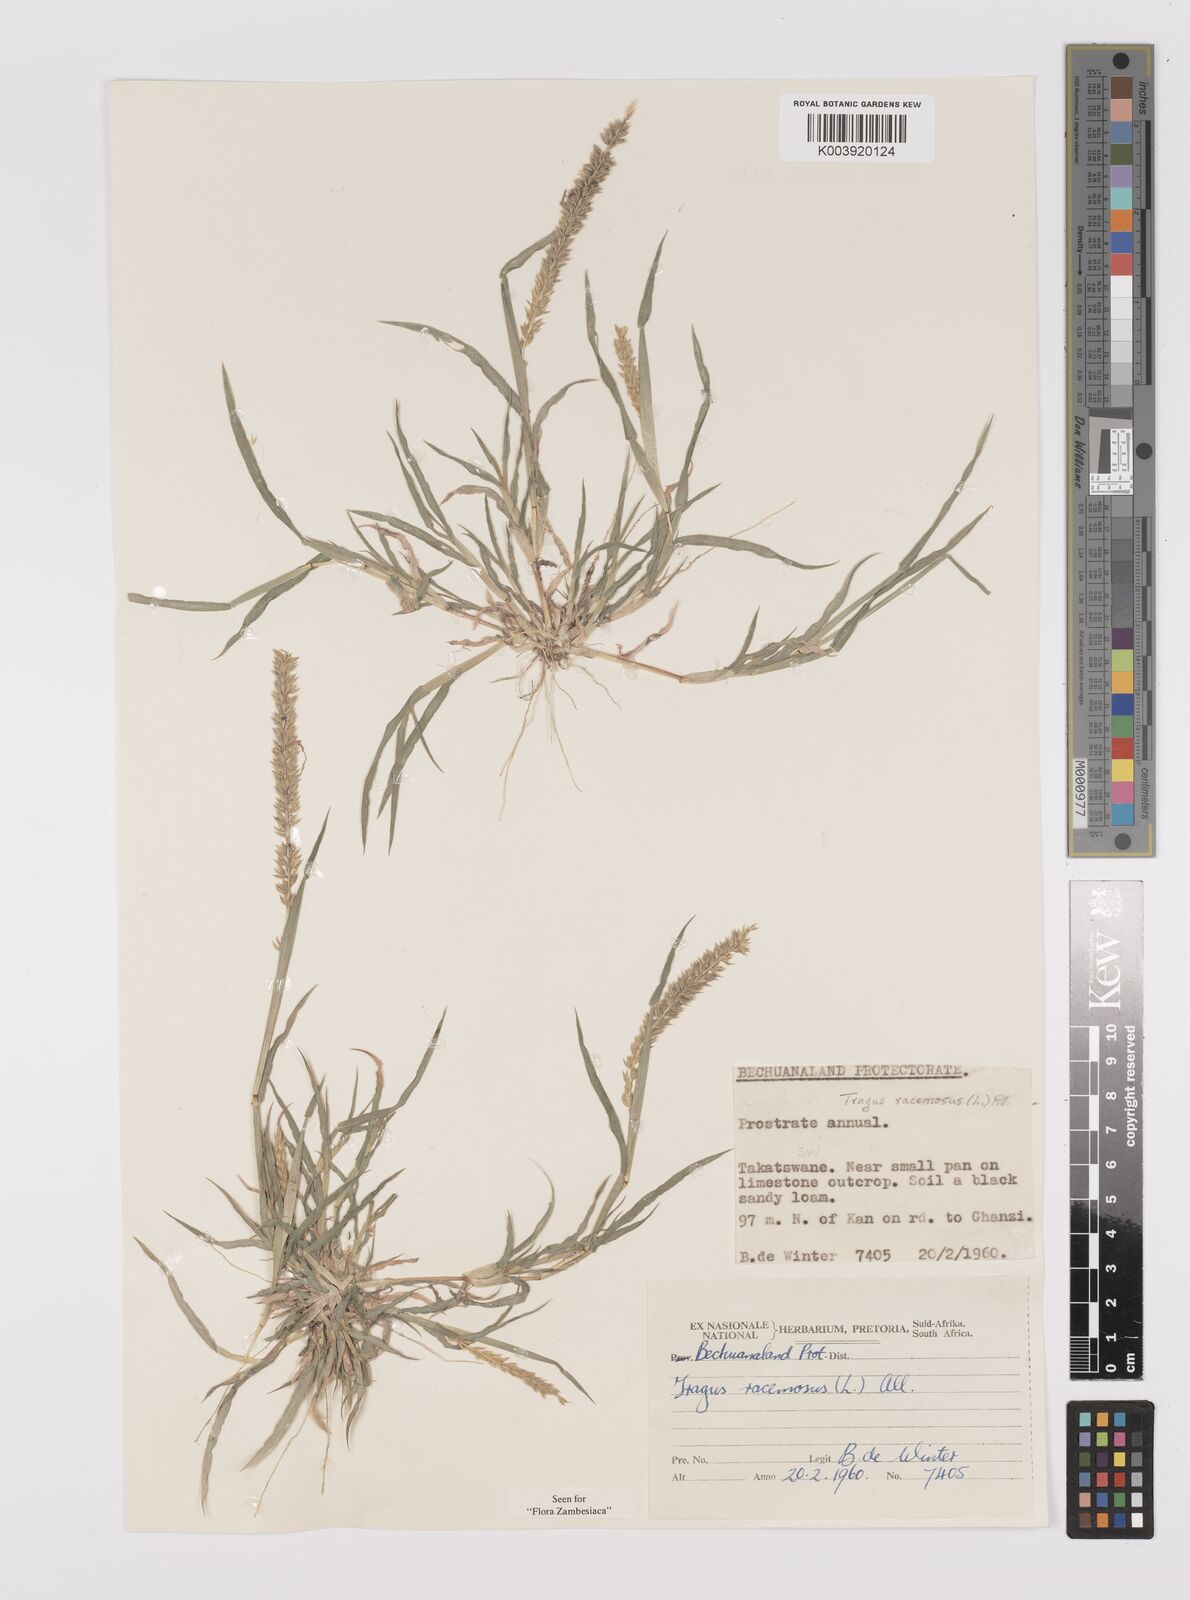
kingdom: Plantae
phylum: Tracheophyta
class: Liliopsida
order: Poales
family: Poaceae
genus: Tragus
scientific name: Tragus racemosus
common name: European bur-grass
